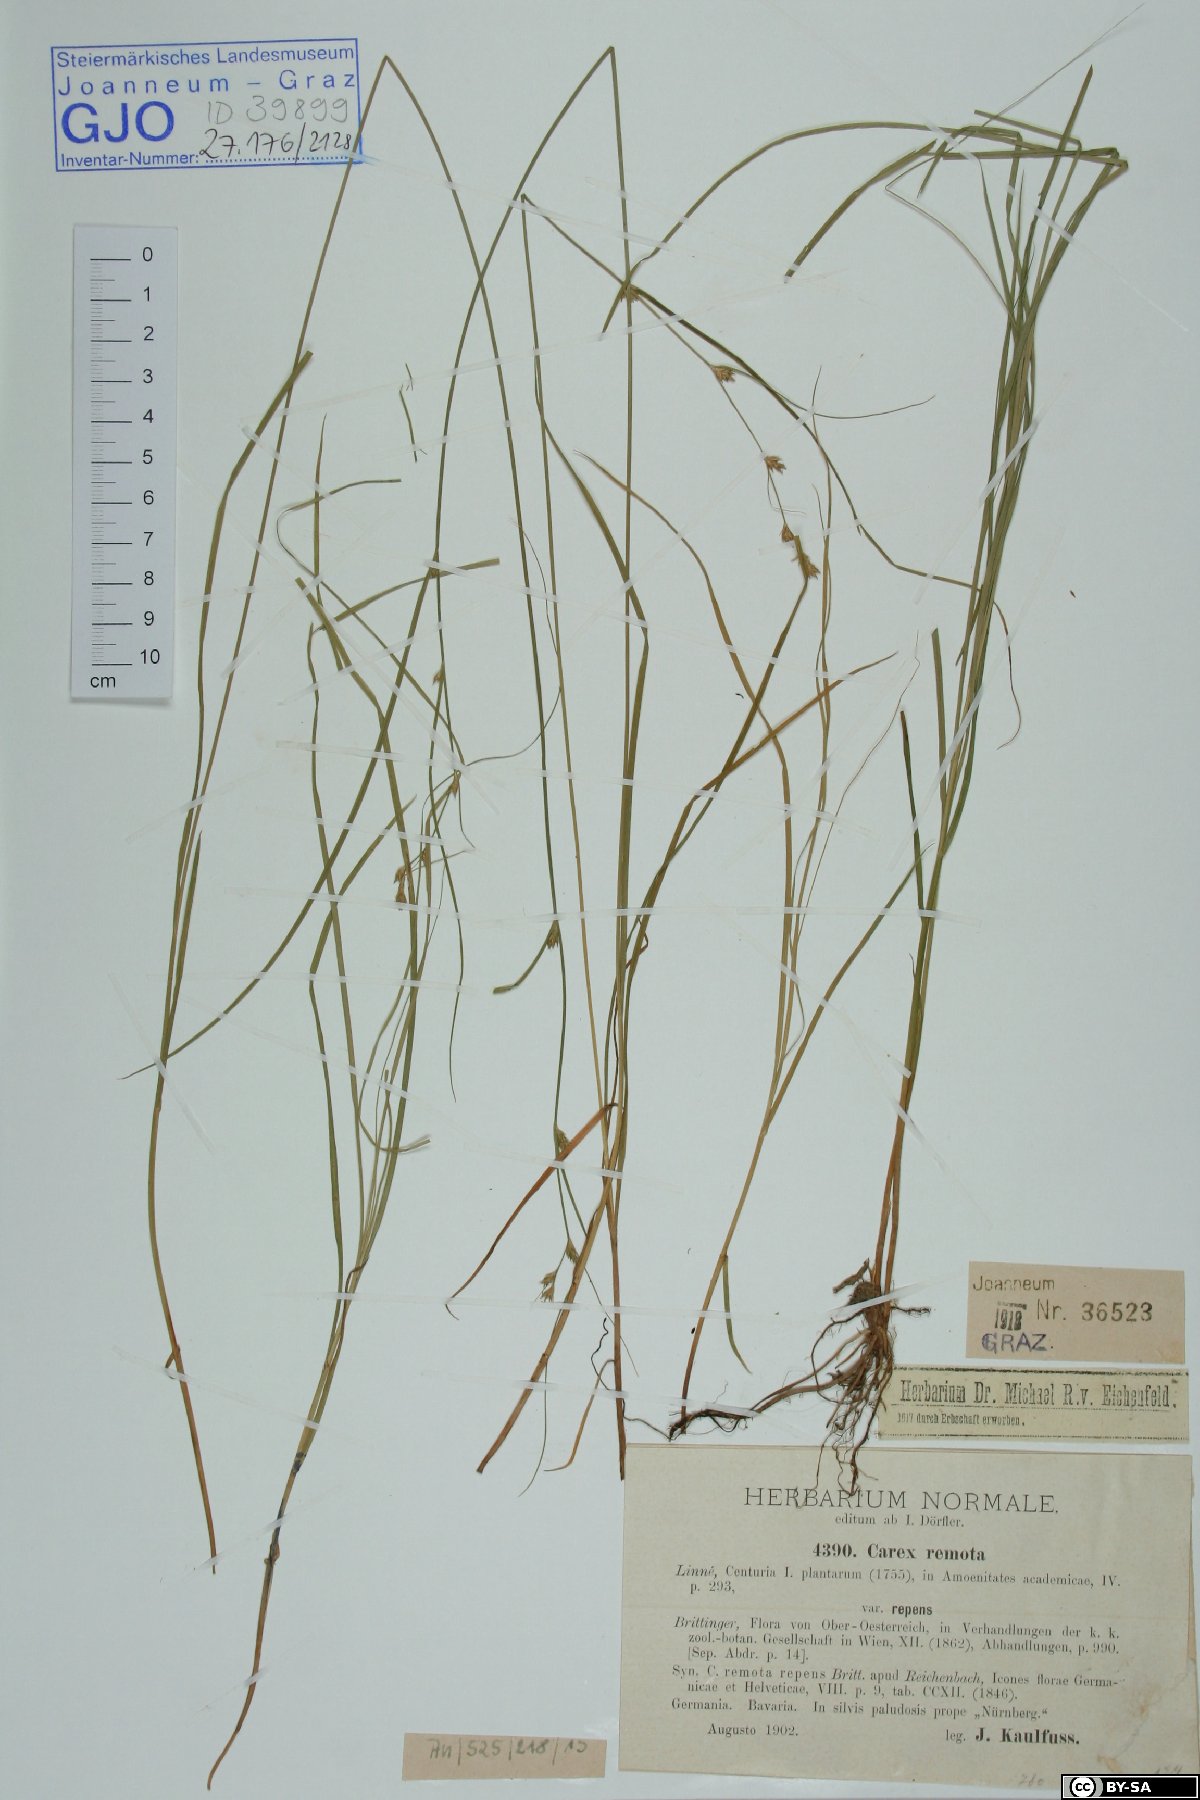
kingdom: Plantae
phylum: Tracheophyta
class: Liliopsida
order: Poales
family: Cyperaceae
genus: Carex
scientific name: Carex remota
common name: Remote sedge
